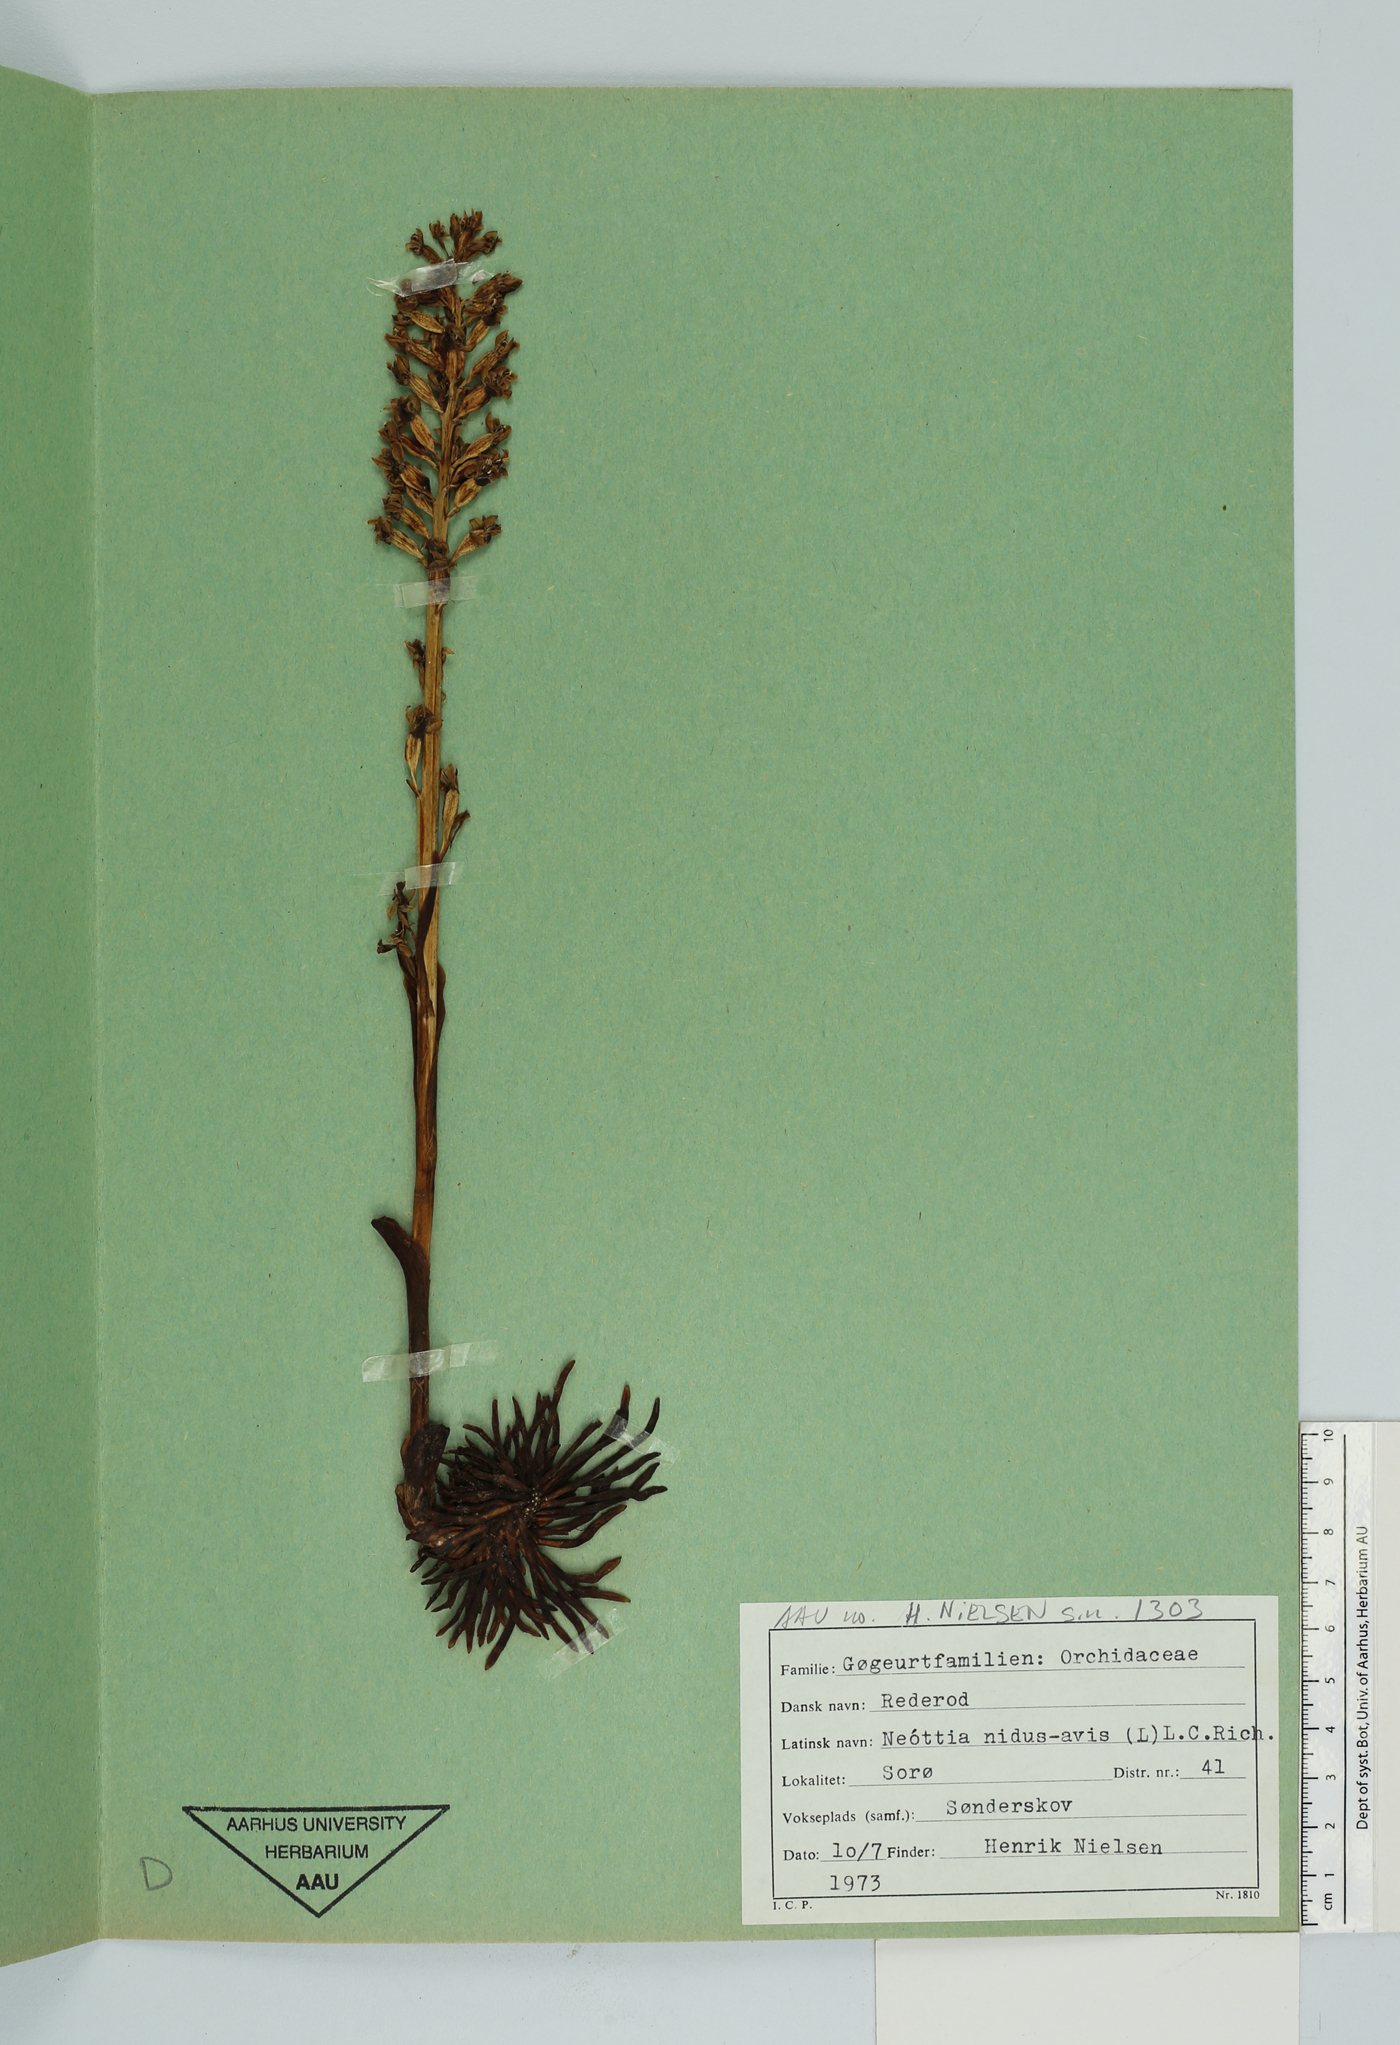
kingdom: Plantae
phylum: Tracheophyta
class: Liliopsida
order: Asparagales
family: Orchidaceae
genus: Neottia
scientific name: Neottia nidus-avis
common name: Bird's-nest orchid
